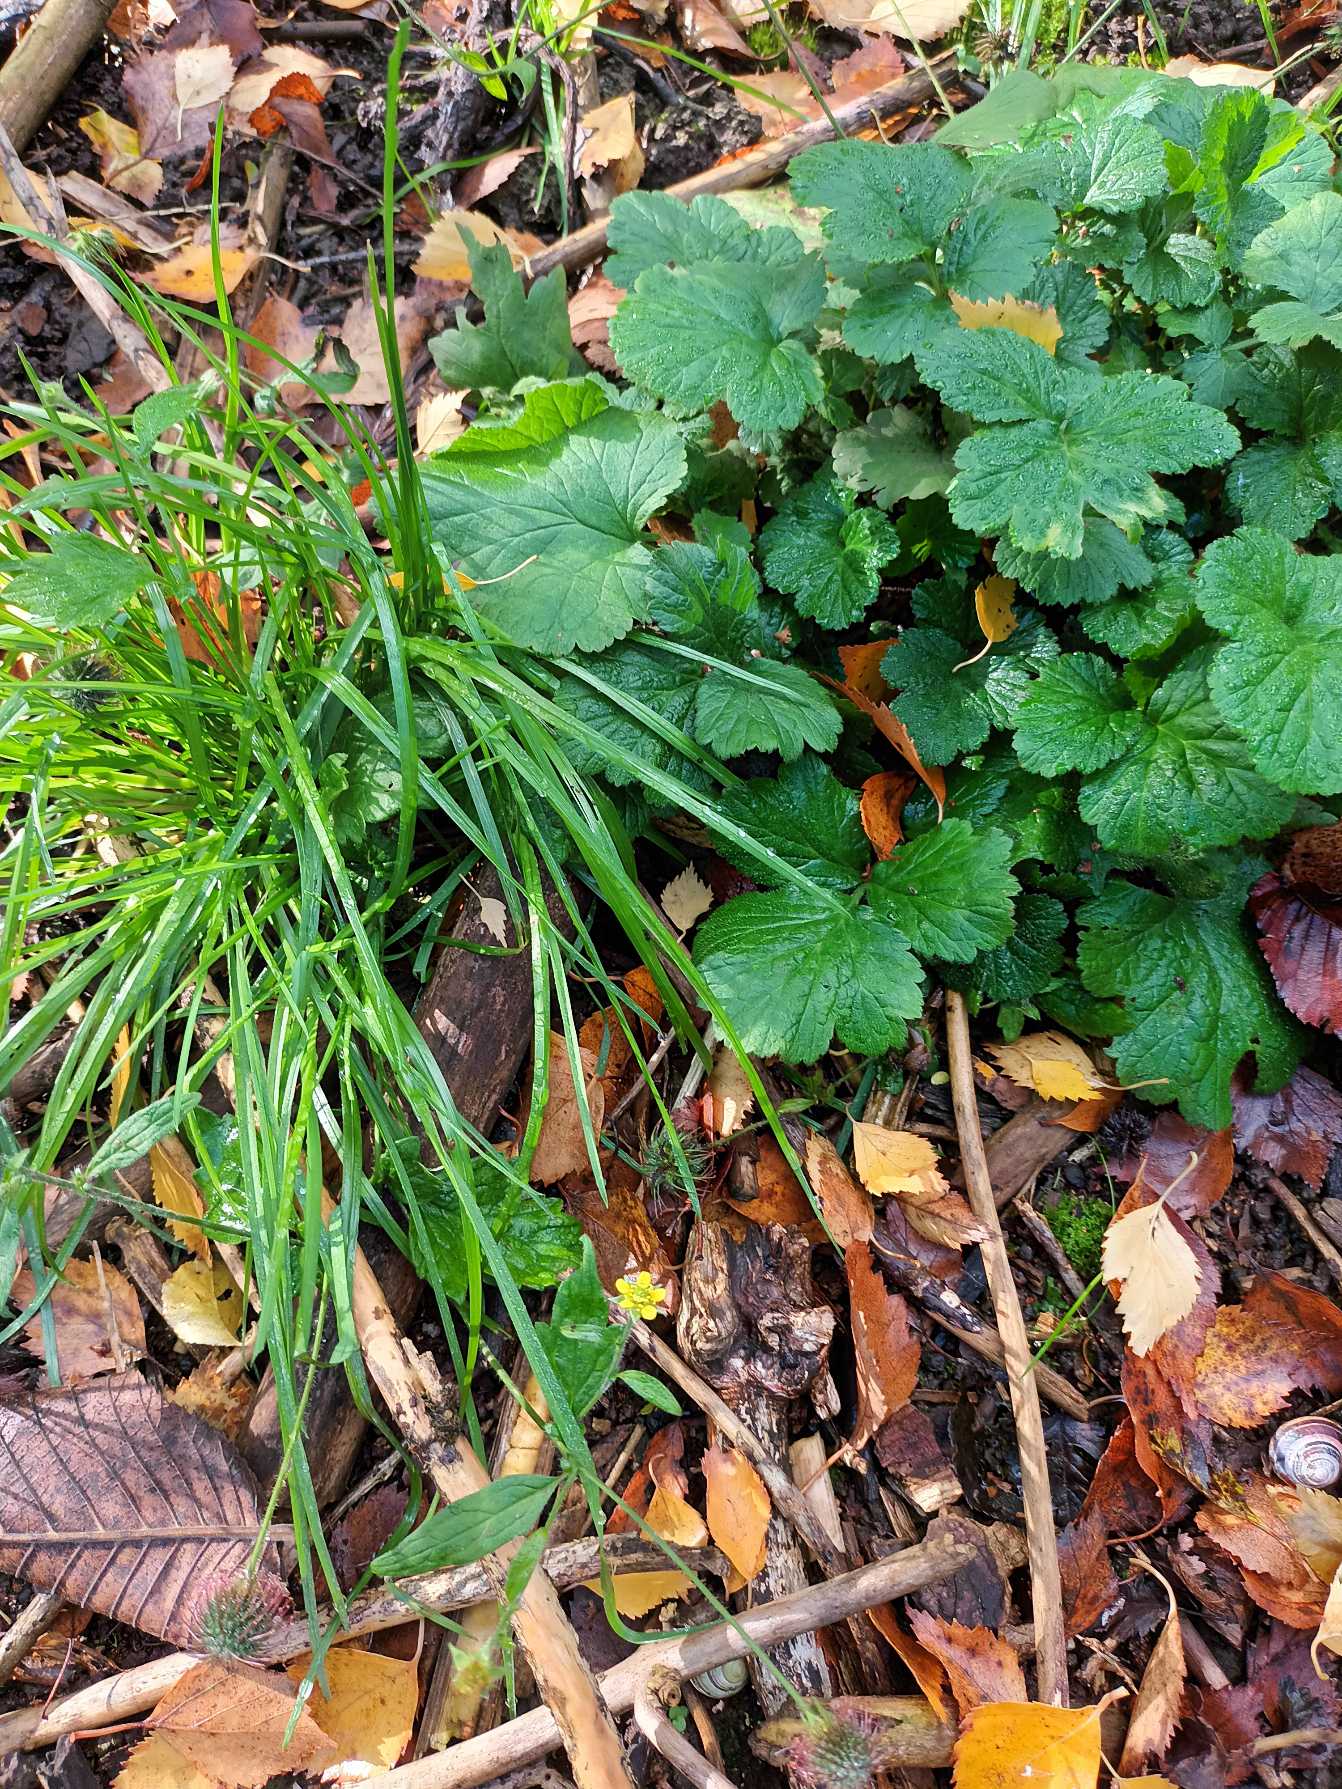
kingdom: Plantae
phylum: Tracheophyta
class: Magnoliopsida
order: Rosales
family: Rosaceae
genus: Geum
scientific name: Geum urbanum
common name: Feber-nellikerod
